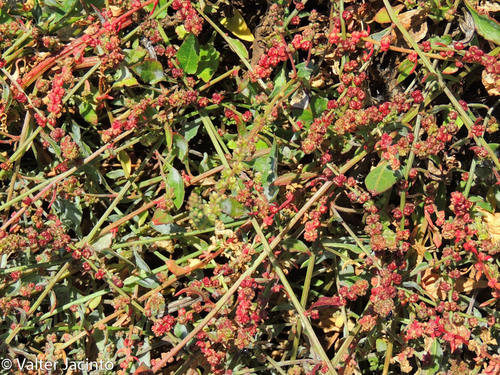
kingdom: Plantae
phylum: Tracheophyta
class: Magnoliopsida
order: Caryophyllales
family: Amaranthaceae
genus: Beta
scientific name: Beta vulgaris
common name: Beet
